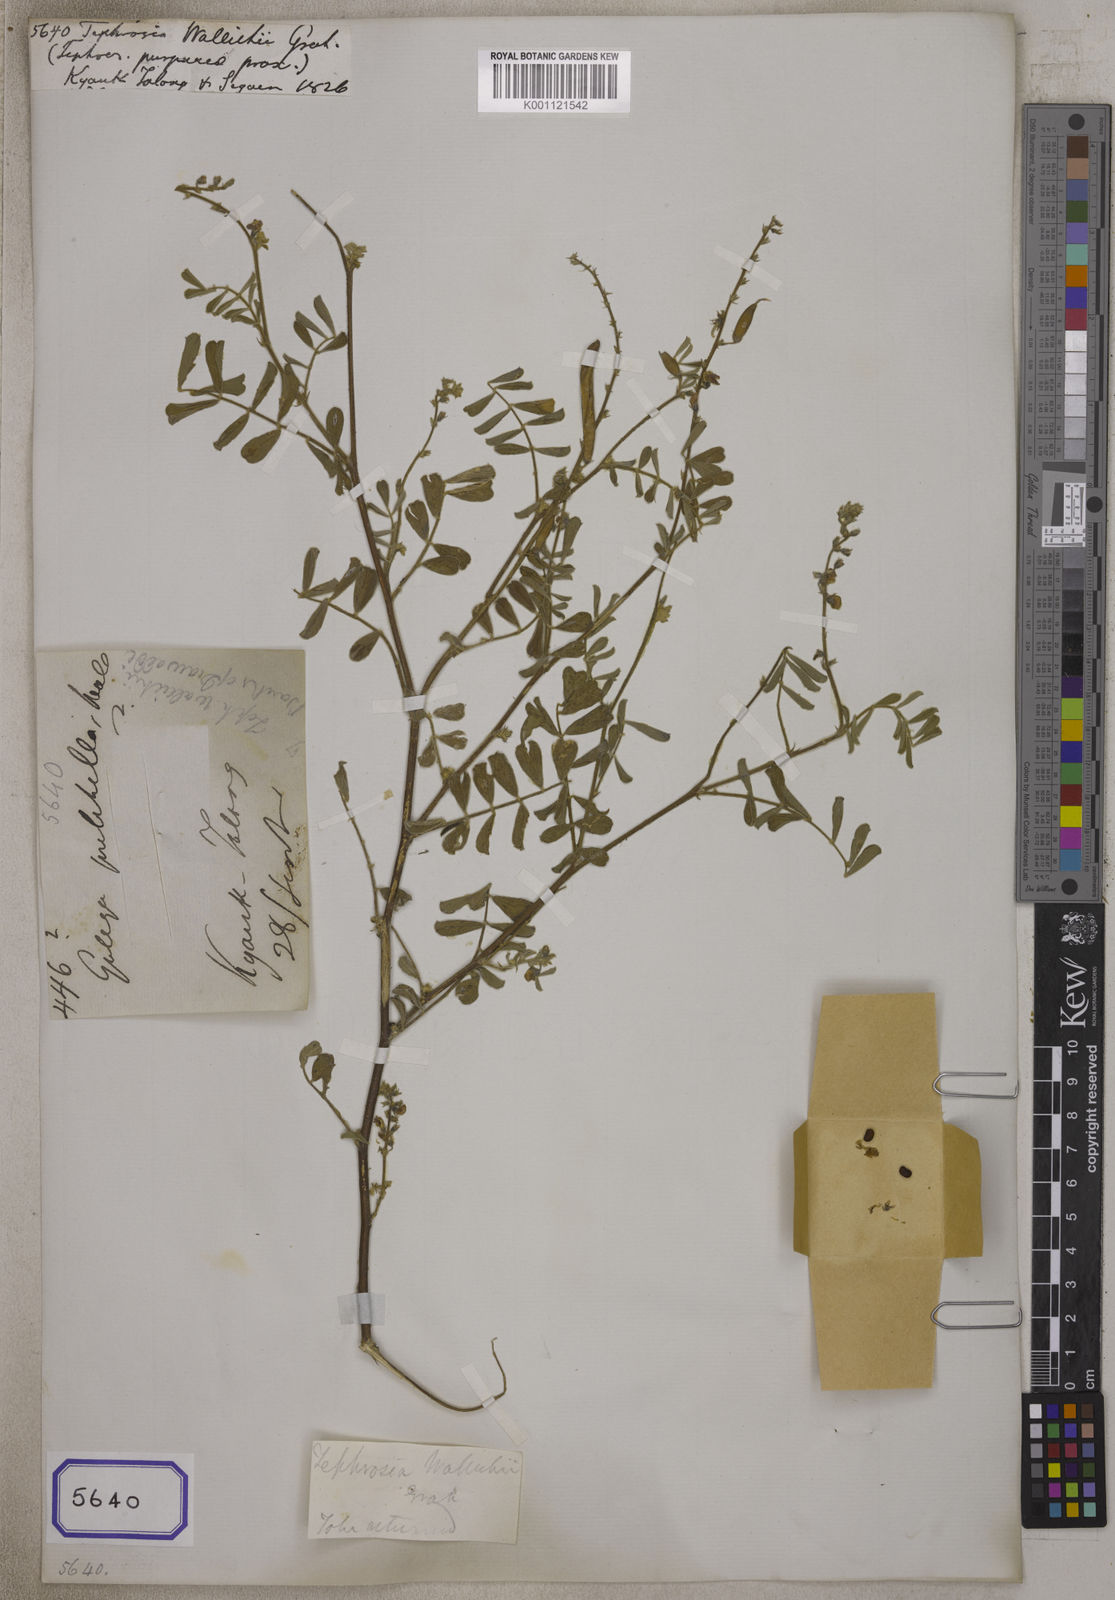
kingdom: Plantae
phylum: Tracheophyta
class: Magnoliopsida
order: Fabales
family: Fabaceae
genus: Tephrosia
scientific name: Tephrosia
